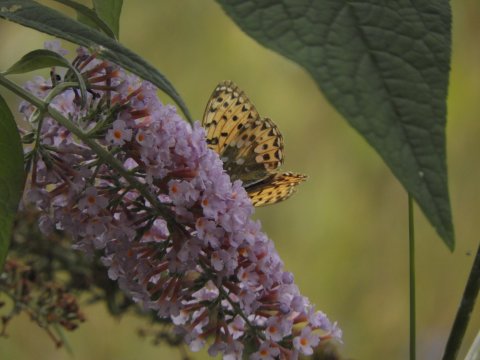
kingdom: Animalia
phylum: Arthropoda
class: Insecta
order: Lepidoptera
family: Nymphalidae
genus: Speyeria
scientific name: Speyeria aglaja
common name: Dark Green Fritillary
